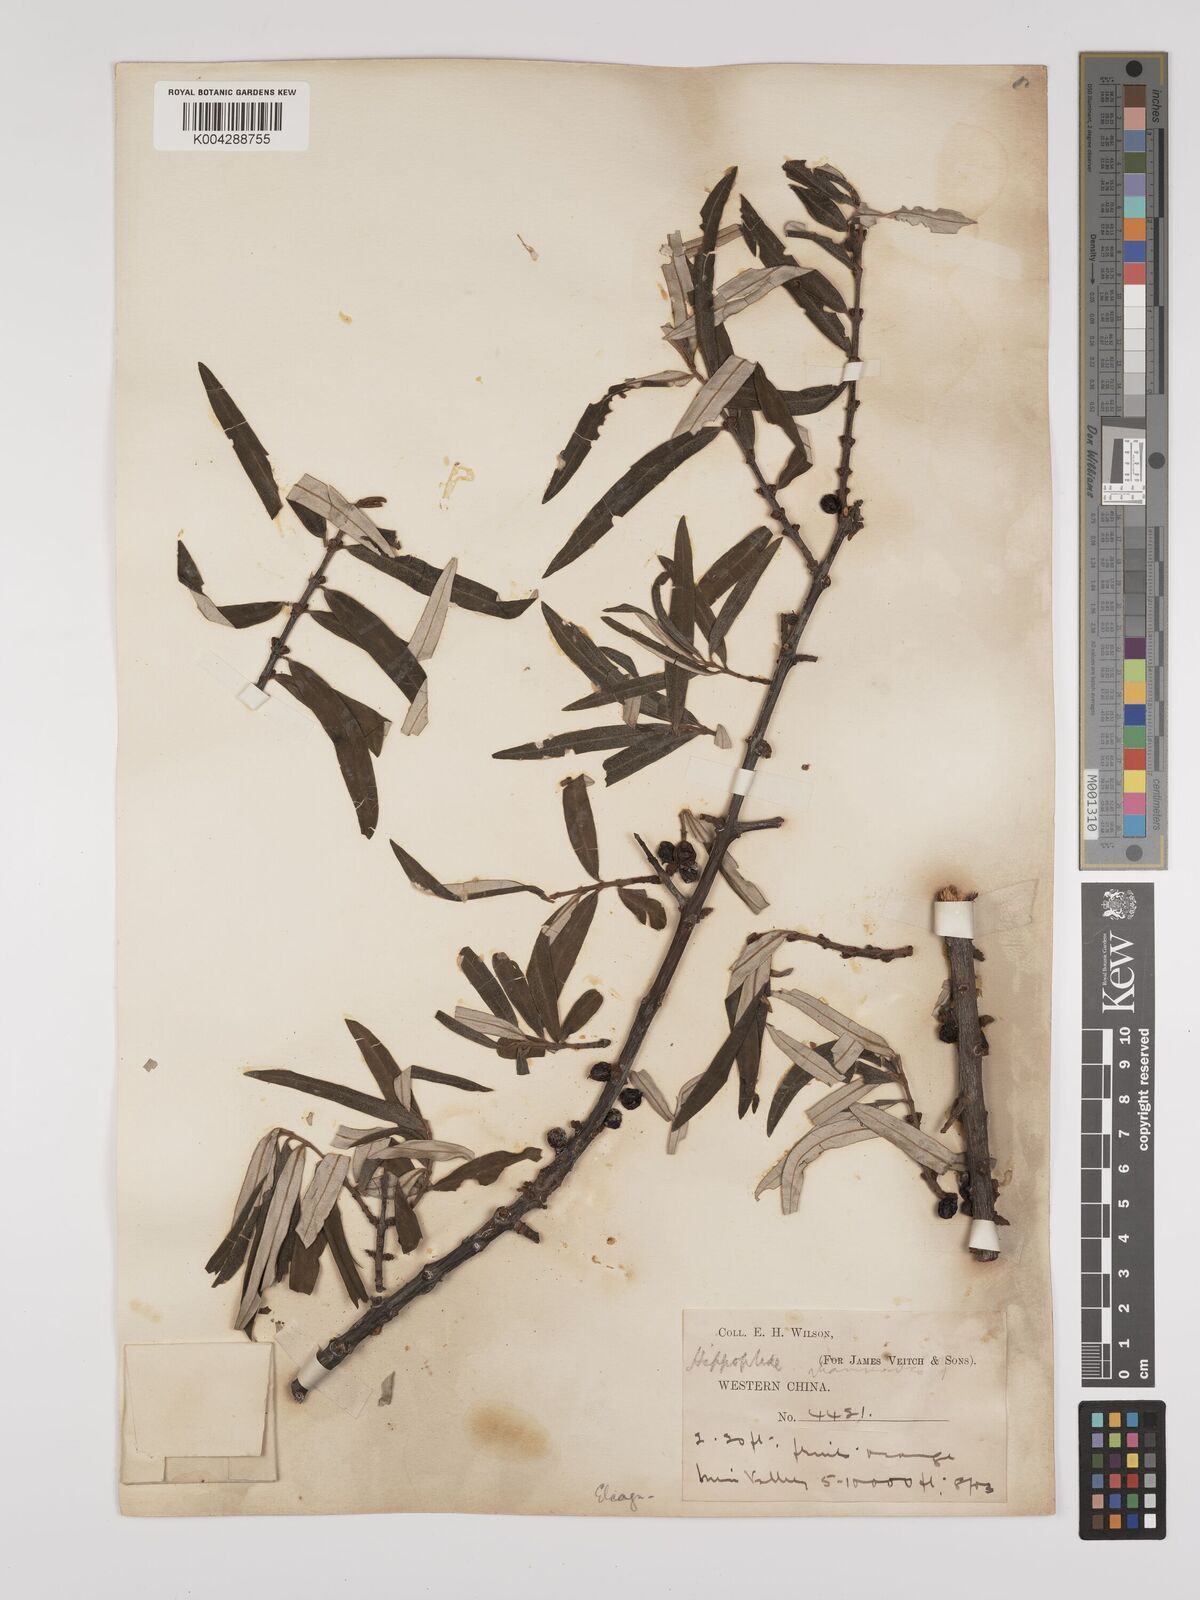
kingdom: Plantae
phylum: Tracheophyta
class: Magnoliopsida
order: Rosales
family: Elaeagnaceae
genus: Hippophae
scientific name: Hippophae rhamnoides
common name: Sea-buckthorn
